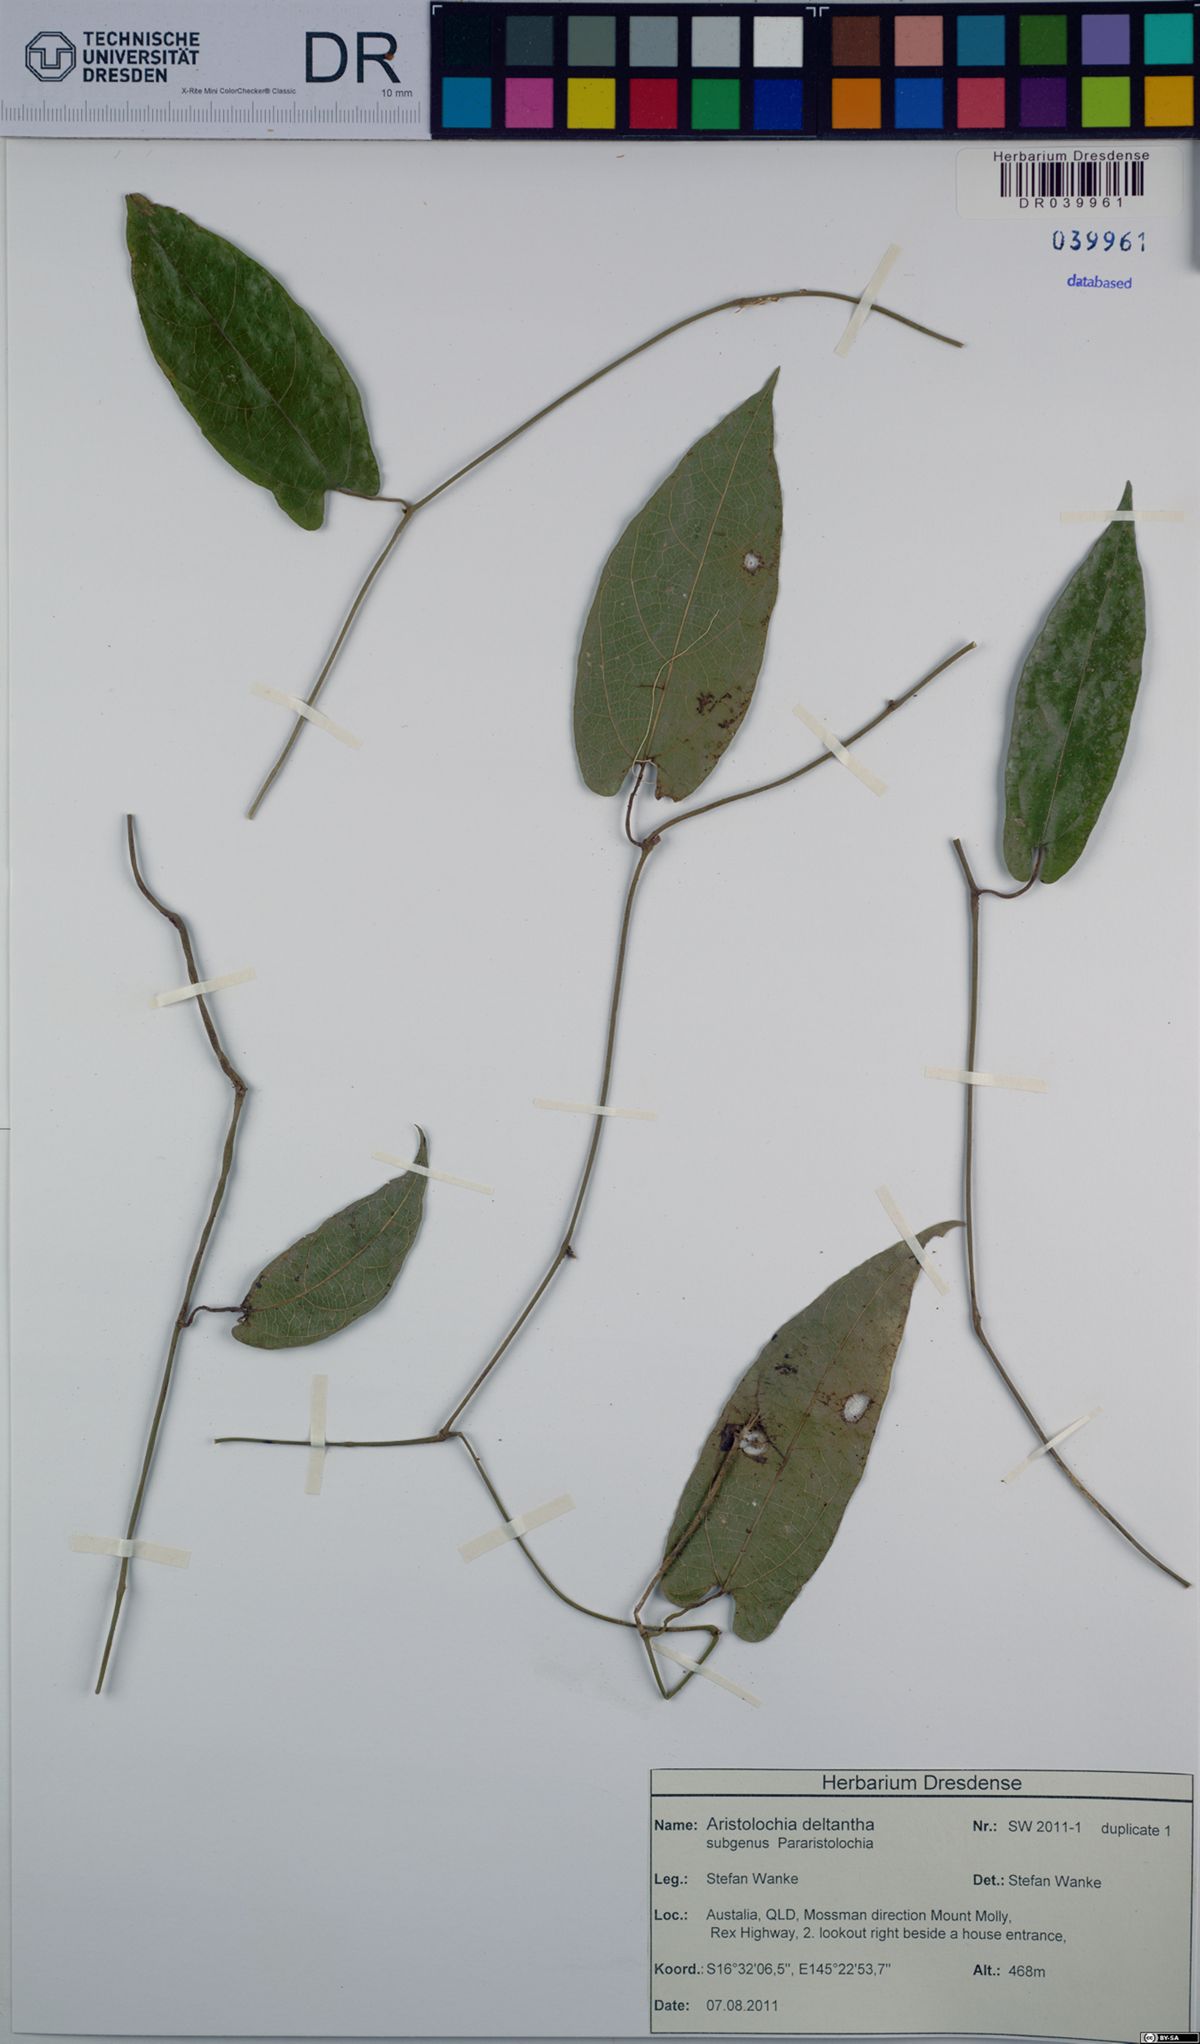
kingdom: Plantae
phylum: Tracheophyta
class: Magnoliopsida
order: Piperales
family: Aristolochiaceae
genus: Aristolochia
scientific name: Aristolochia deltantha
